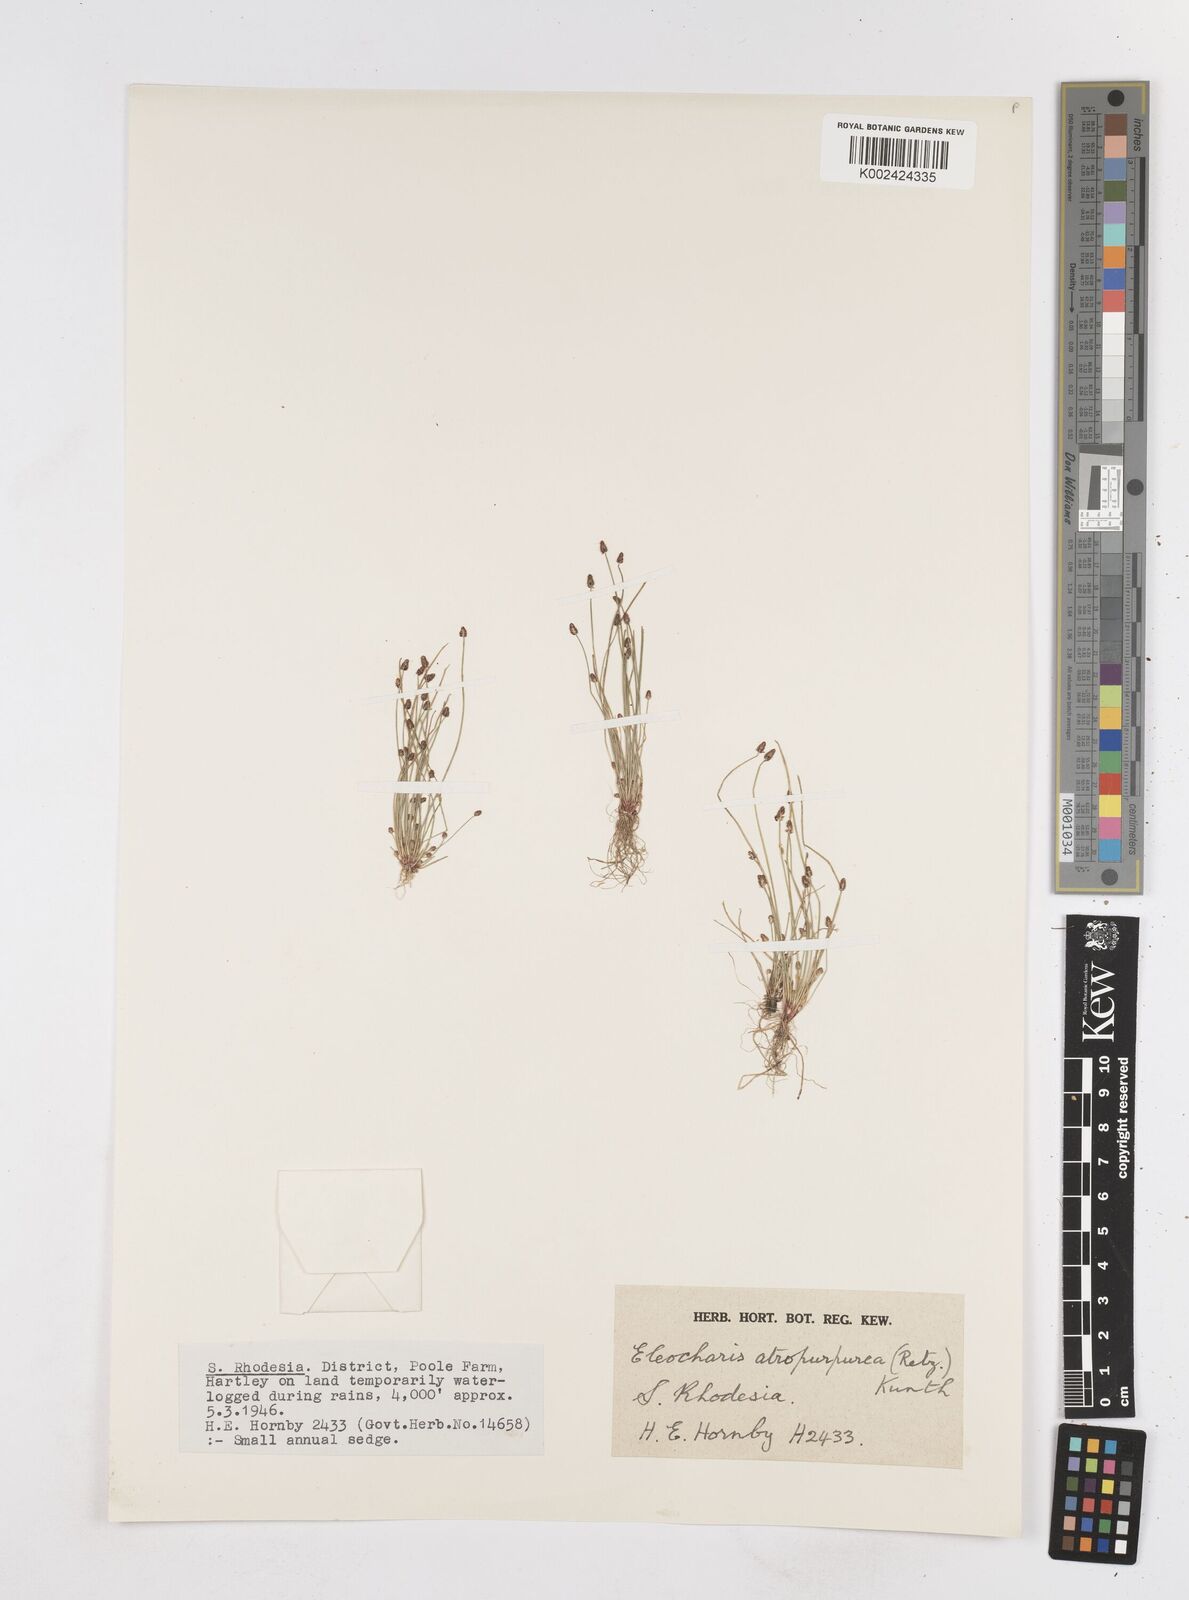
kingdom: Plantae
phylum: Tracheophyta
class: Liliopsida
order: Poales
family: Cyperaceae
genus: Eleocharis
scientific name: Eleocharis atropurpurea
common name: Purple spikerush
